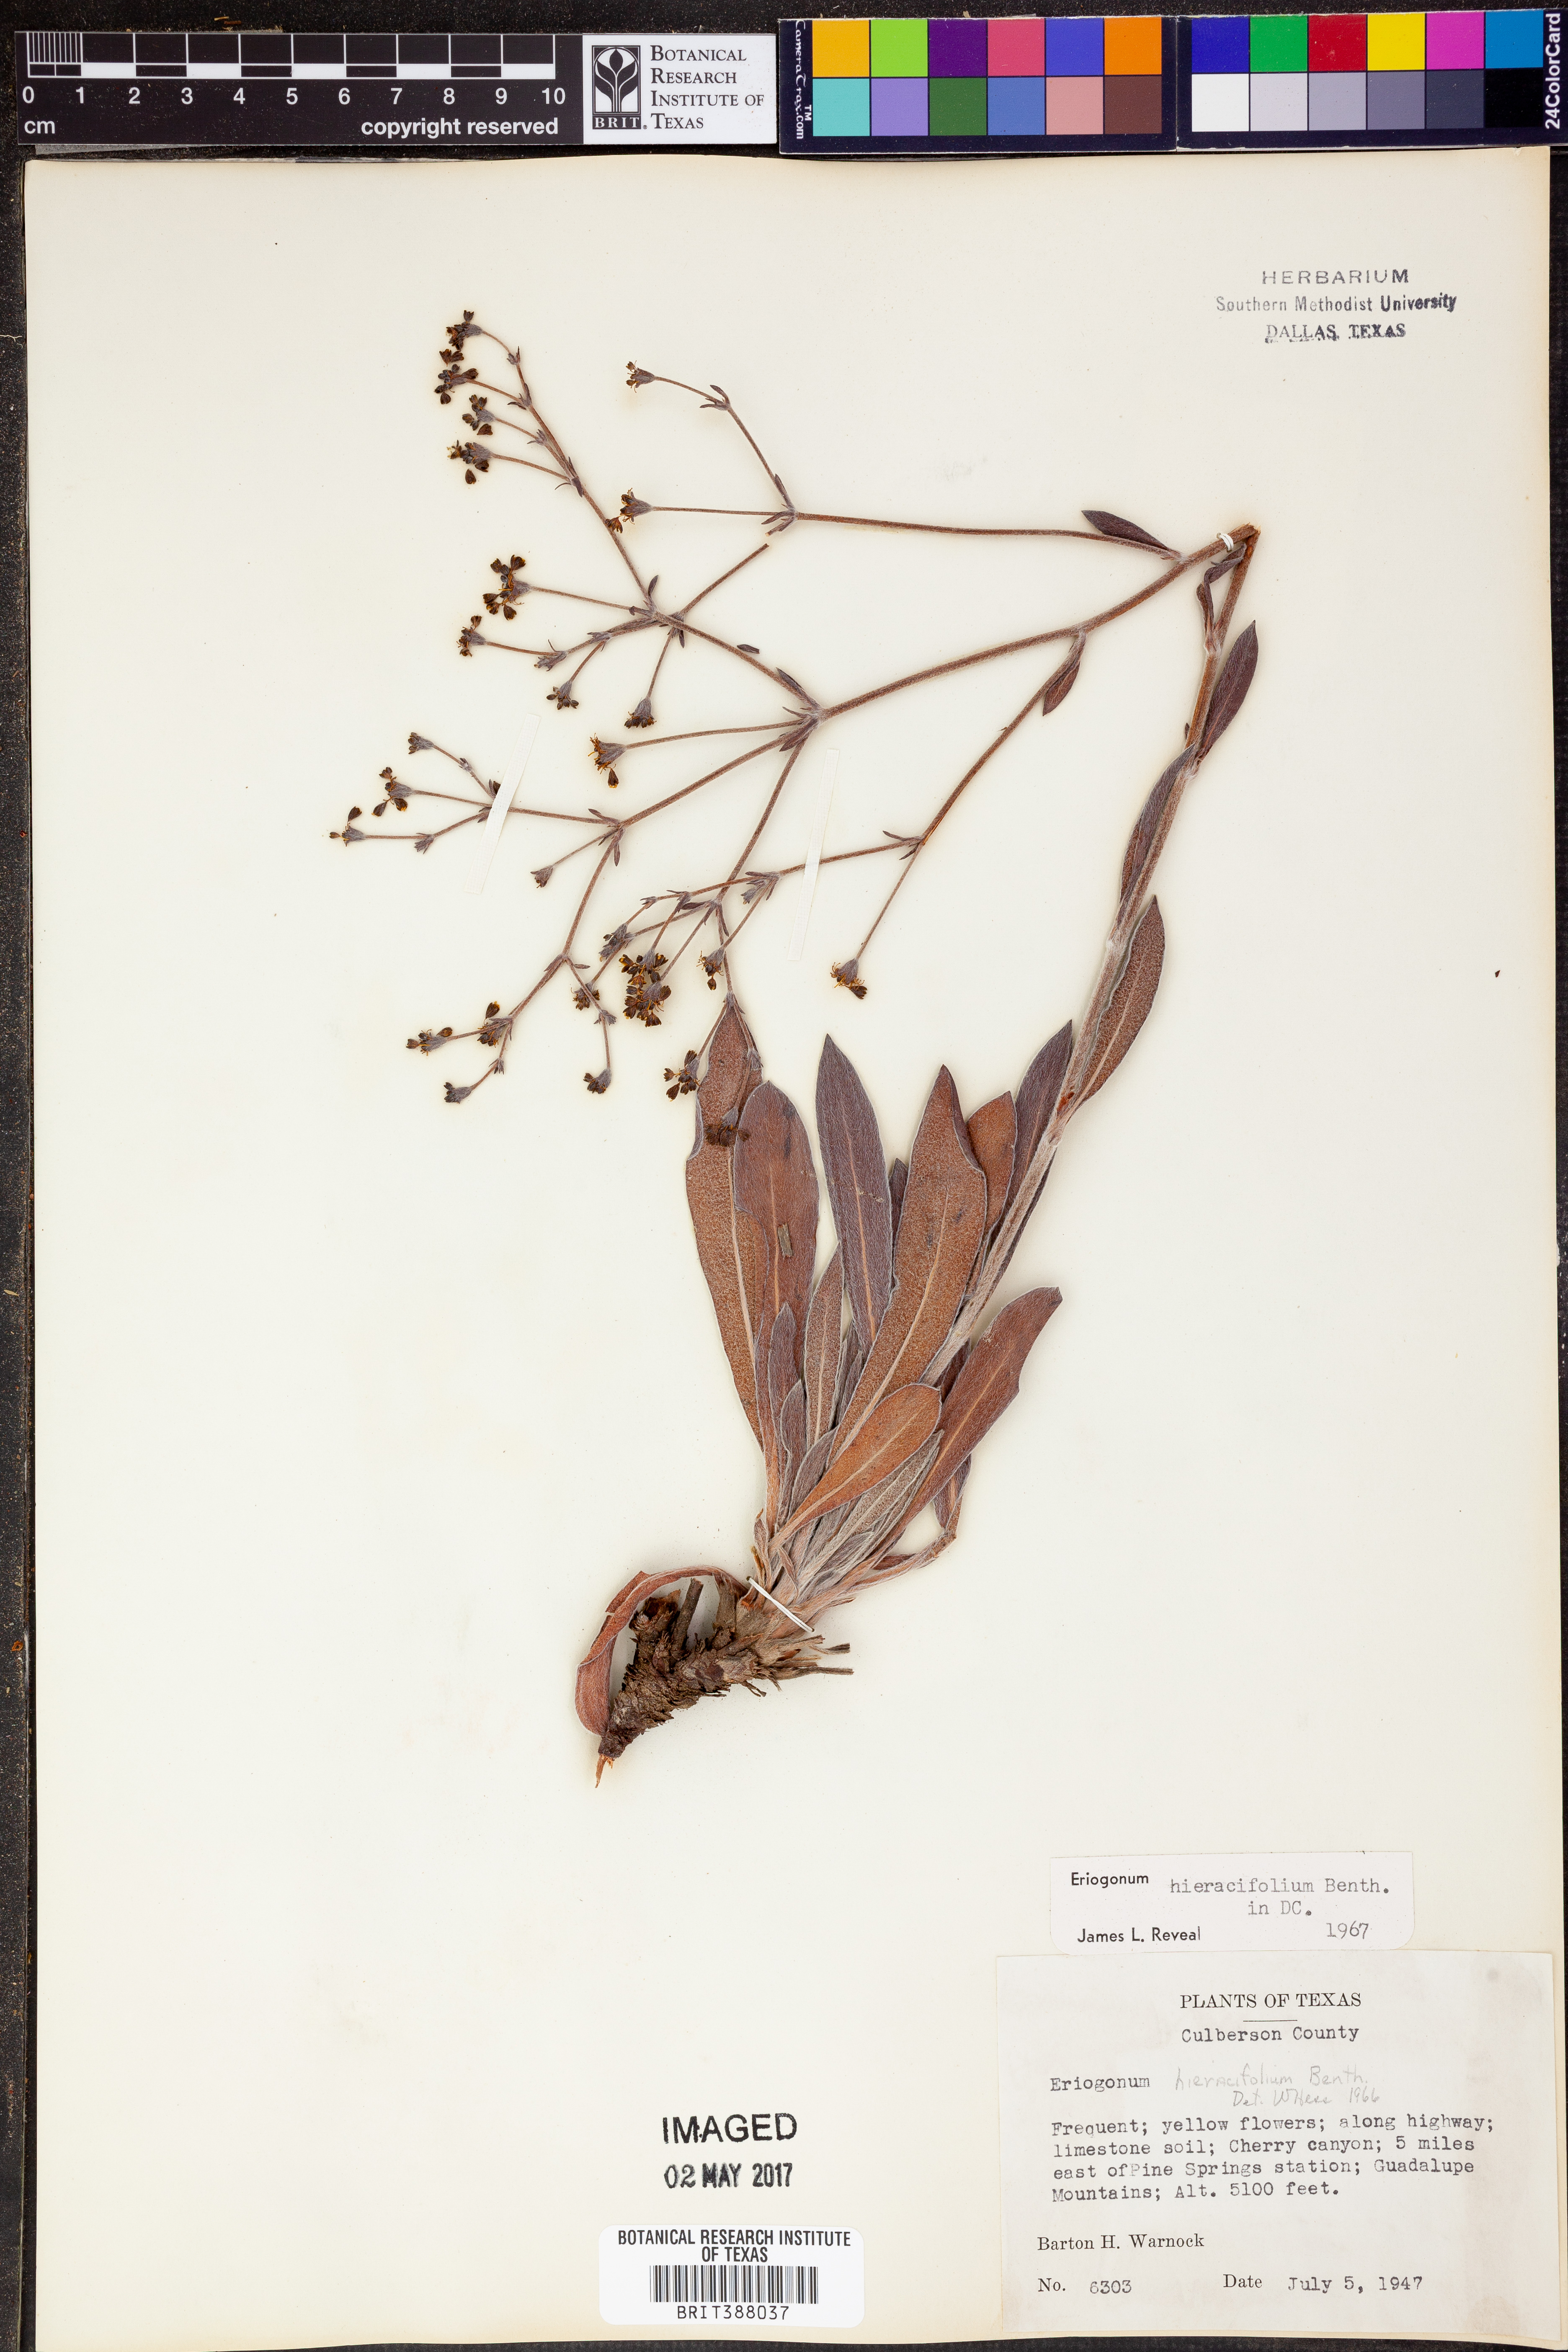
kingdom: Plantae
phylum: Tracheophyta
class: Magnoliopsida
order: Caryophyllales
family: Polygonaceae
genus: Eriogonum
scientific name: Eriogonum hieraciifolium
